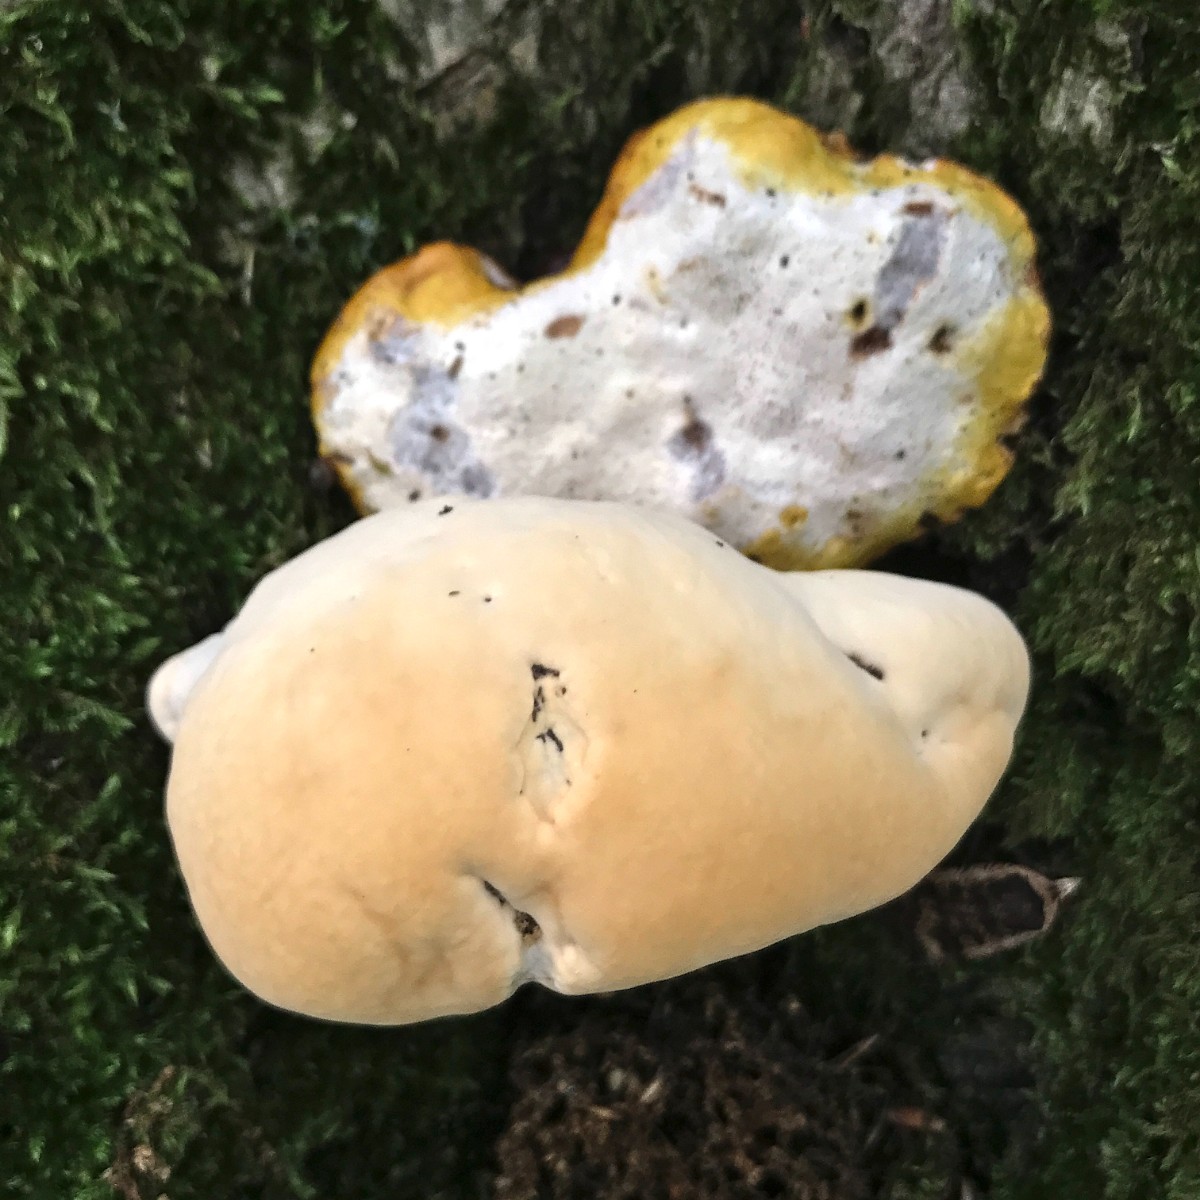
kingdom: Fungi
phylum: Basidiomycota
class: Agaricomycetes
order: Polyporales
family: Polyporaceae
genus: Ganoderma
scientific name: Ganoderma resinaceum
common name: gyldenbrun lakporesvamp
